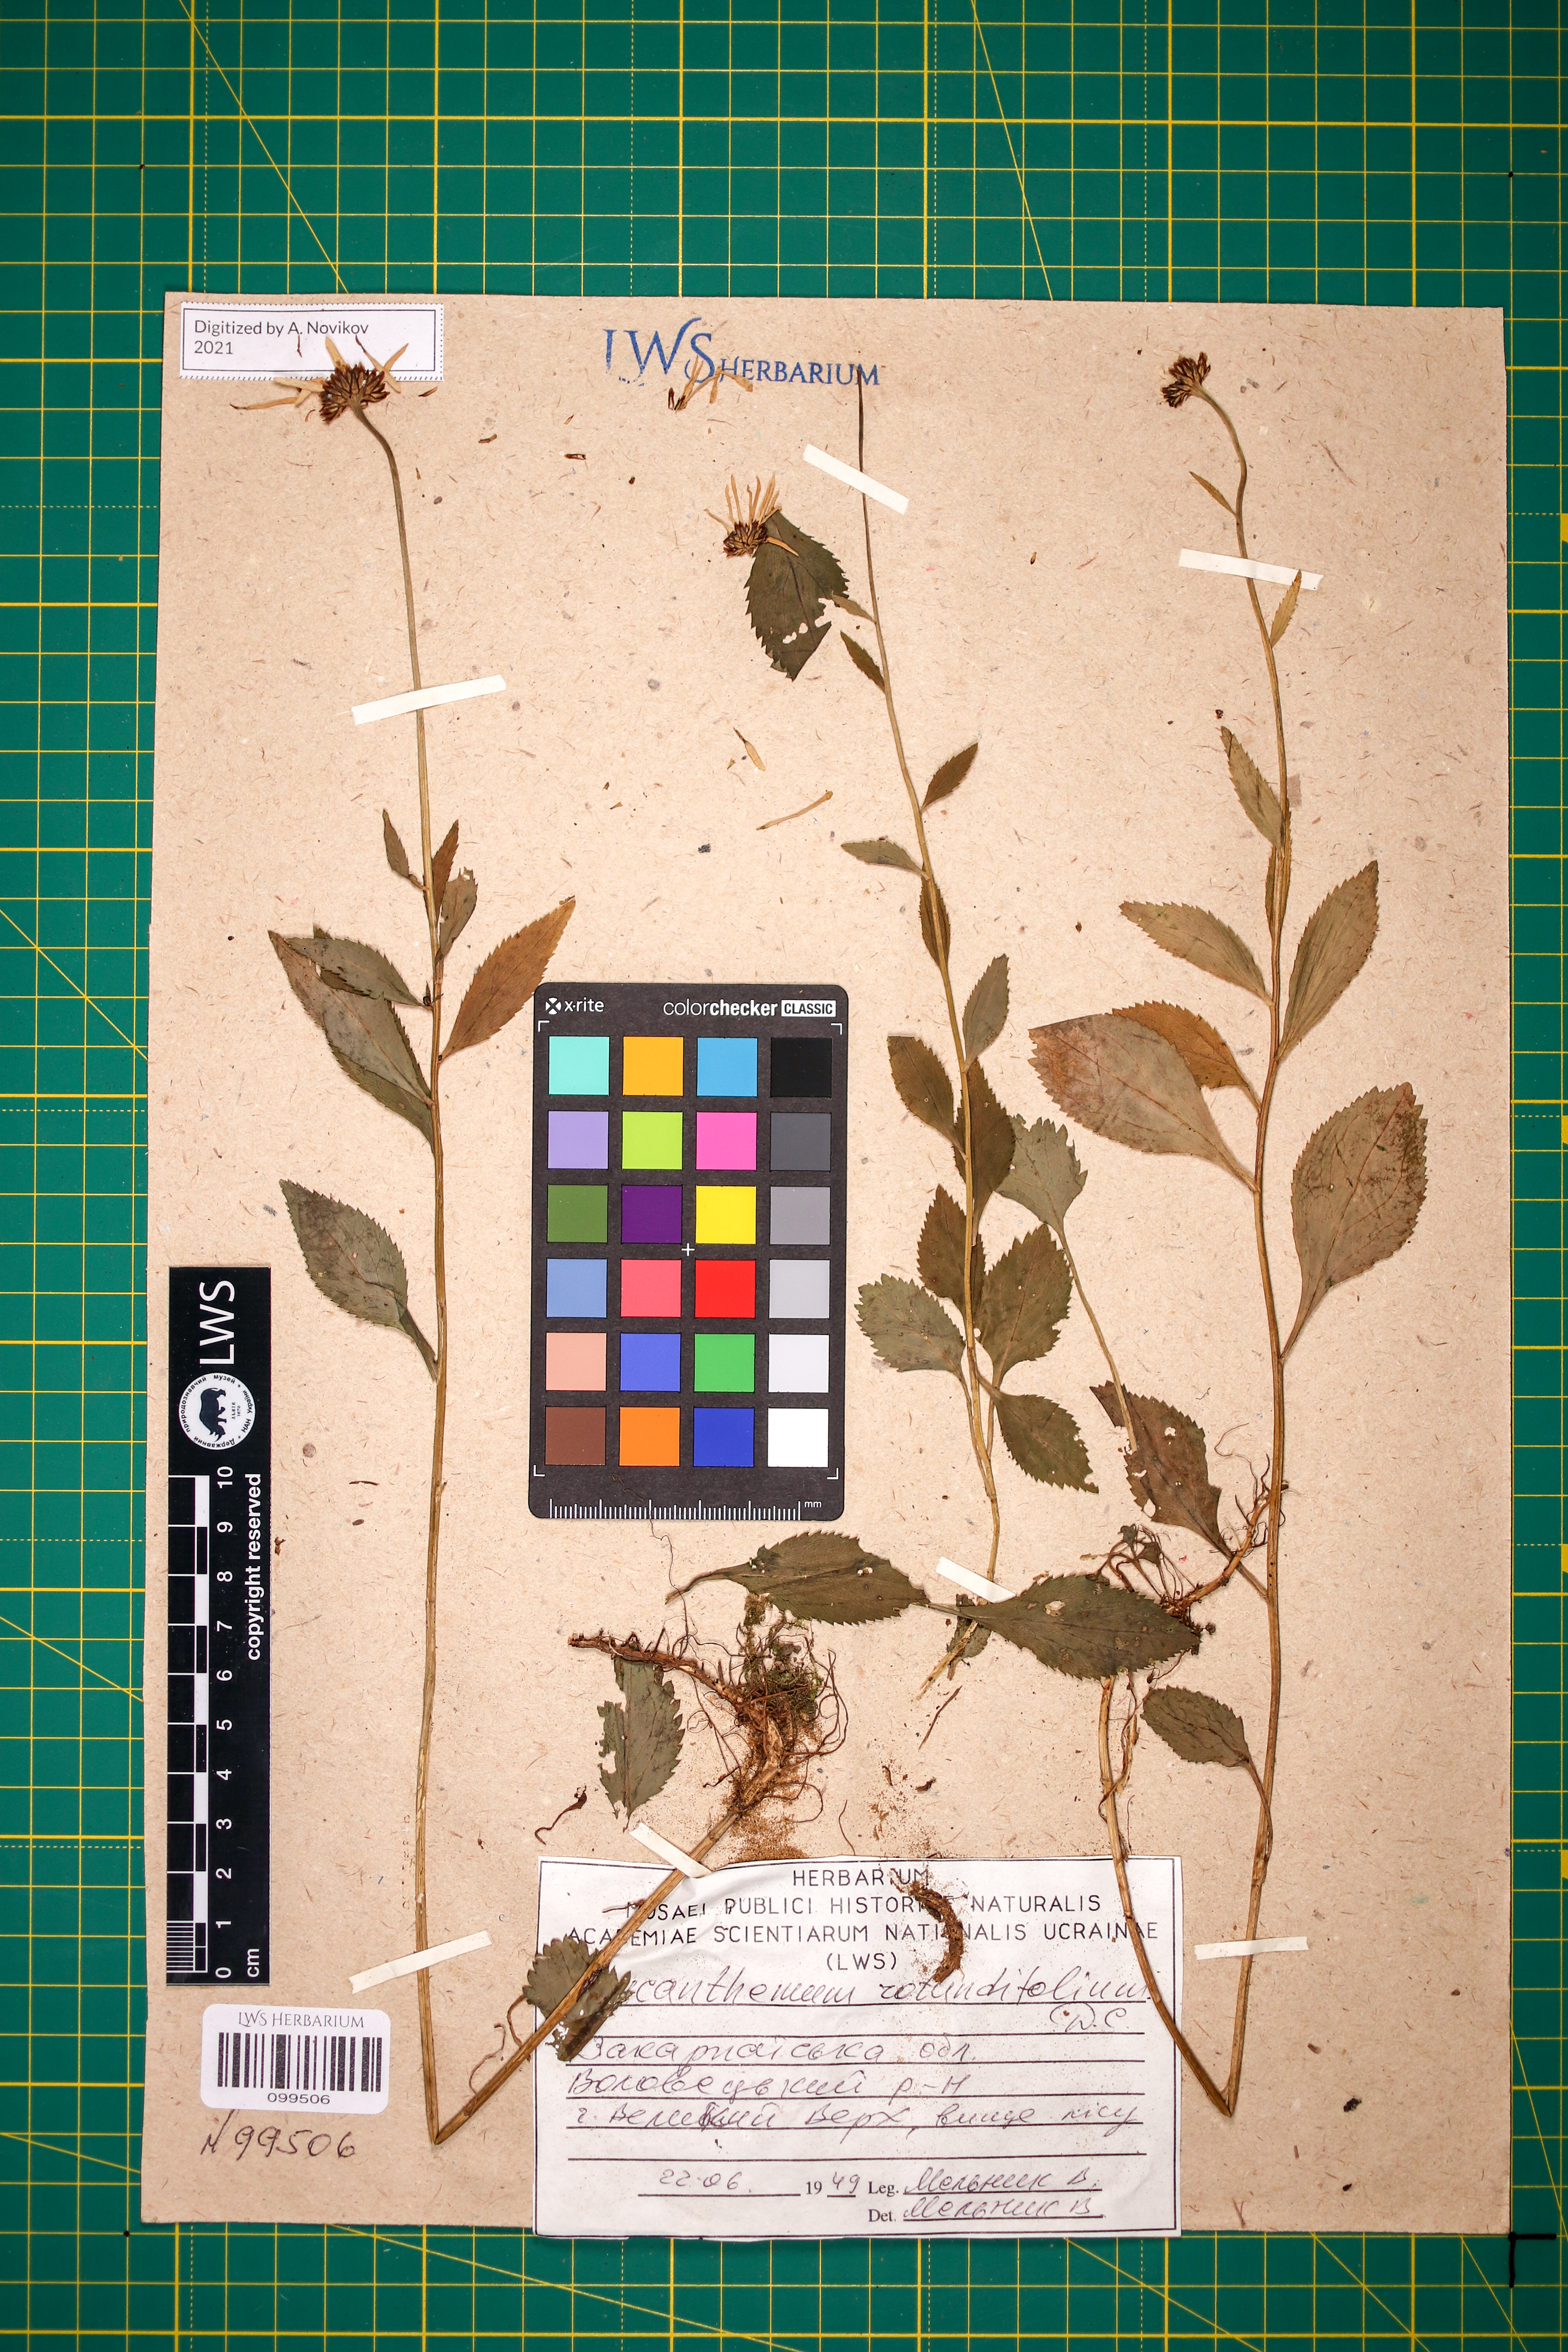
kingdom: Plantae
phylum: Tracheophyta
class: Magnoliopsida
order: Asterales
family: Asteraceae
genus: Leucanthemum
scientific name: Leucanthemum rotundifolium
